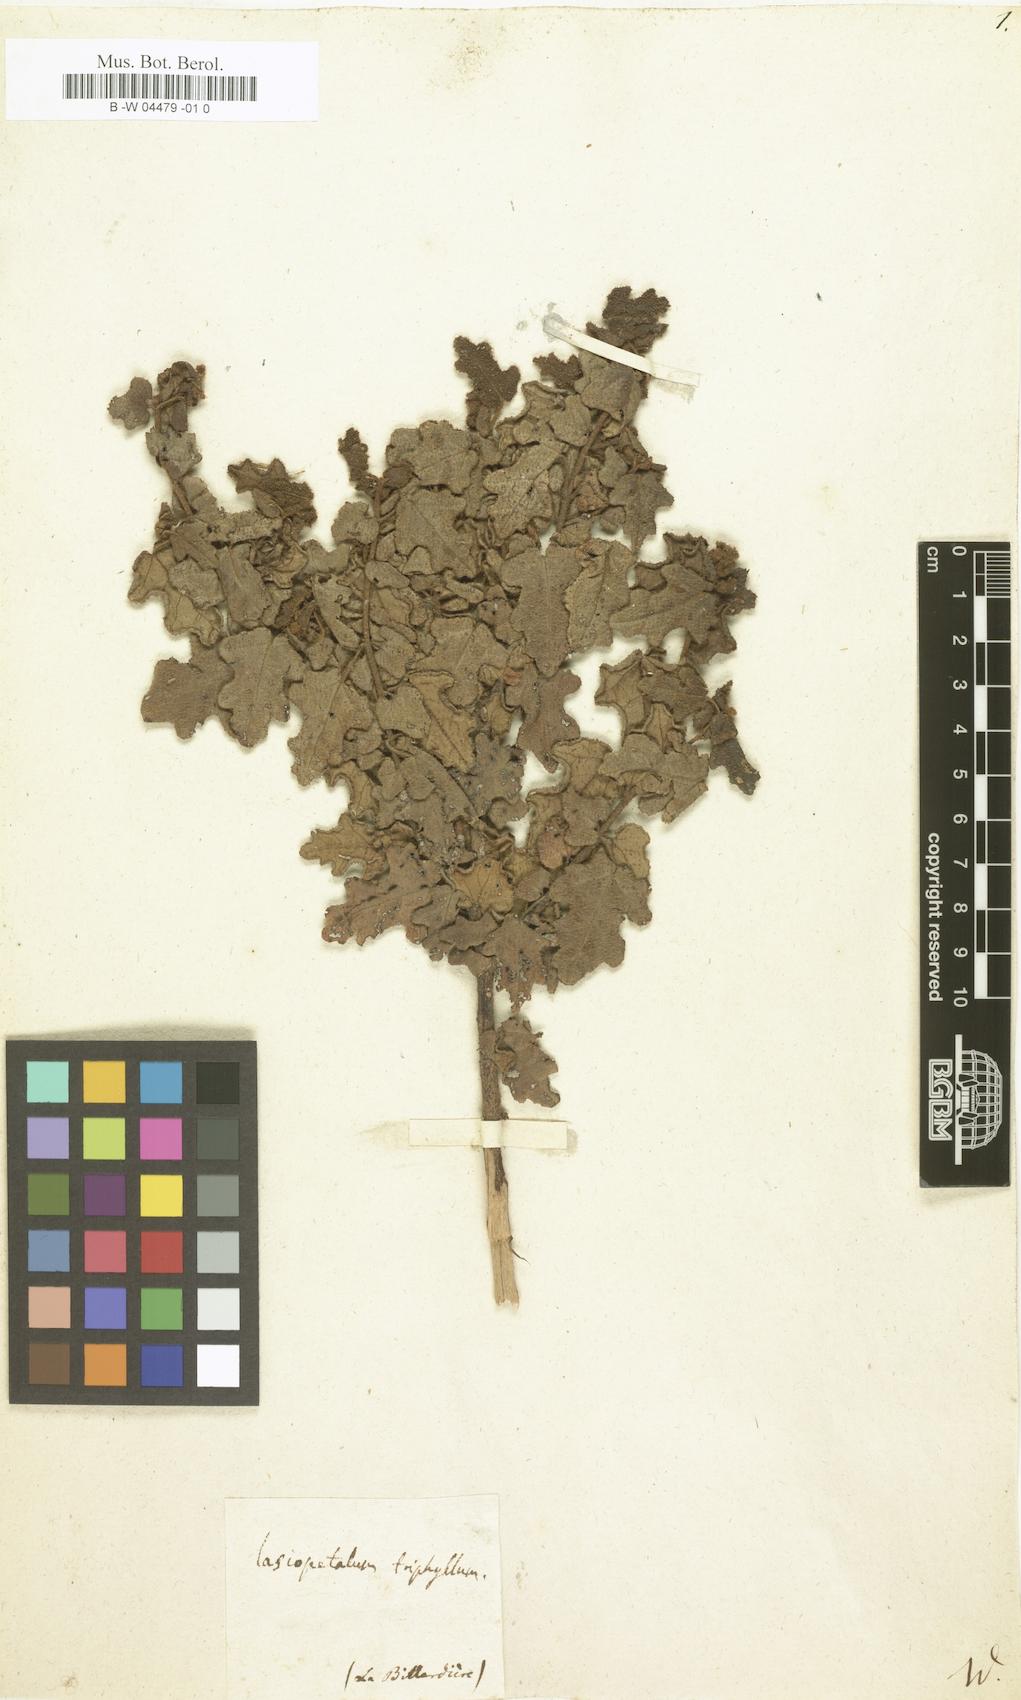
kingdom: Plantae
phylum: Tracheophyta
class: Magnoliopsida
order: Malvales
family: Malvaceae
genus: Thomasia
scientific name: Thomasia triphylla
